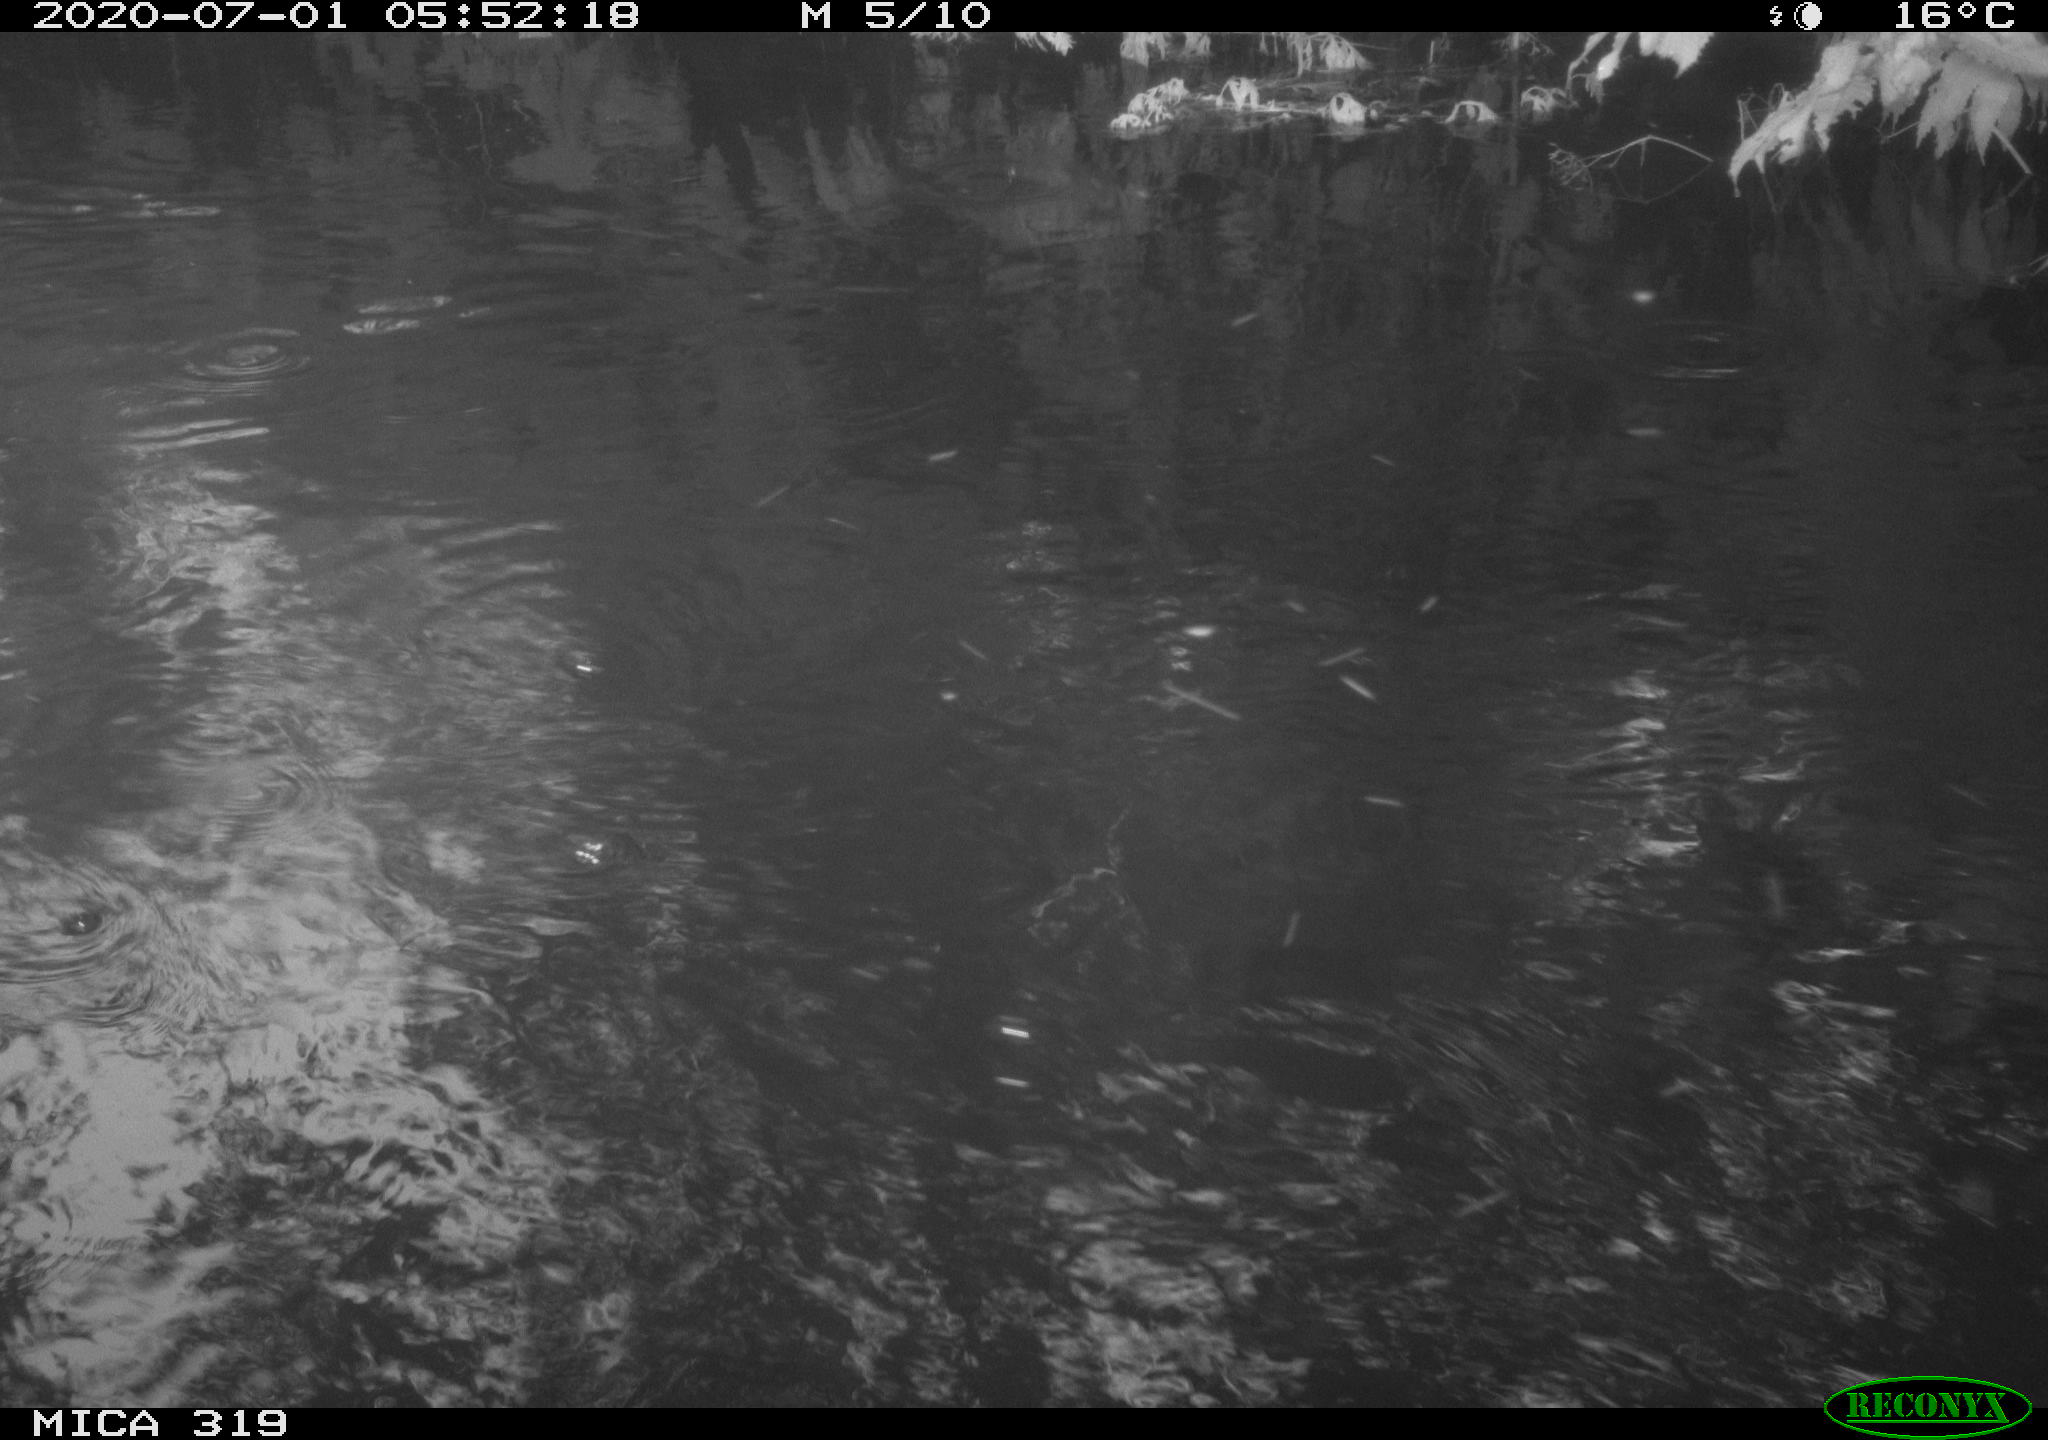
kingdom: Animalia
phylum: Chordata
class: Aves
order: Anseriformes
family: Anatidae
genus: Anas
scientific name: Anas platyrhynchos
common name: Mallard
